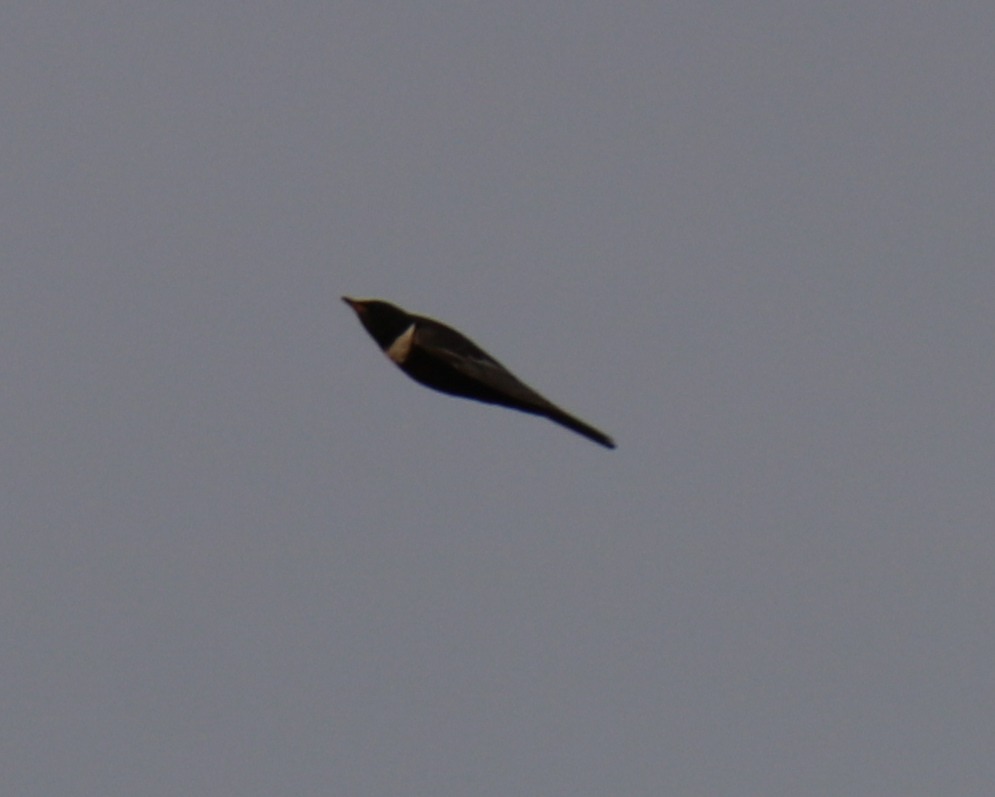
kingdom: Animalia
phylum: Chordata
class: Aves
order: Passeriformes
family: Turdidae
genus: Turdus
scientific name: Turdus torquatus
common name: Ringdrossel
